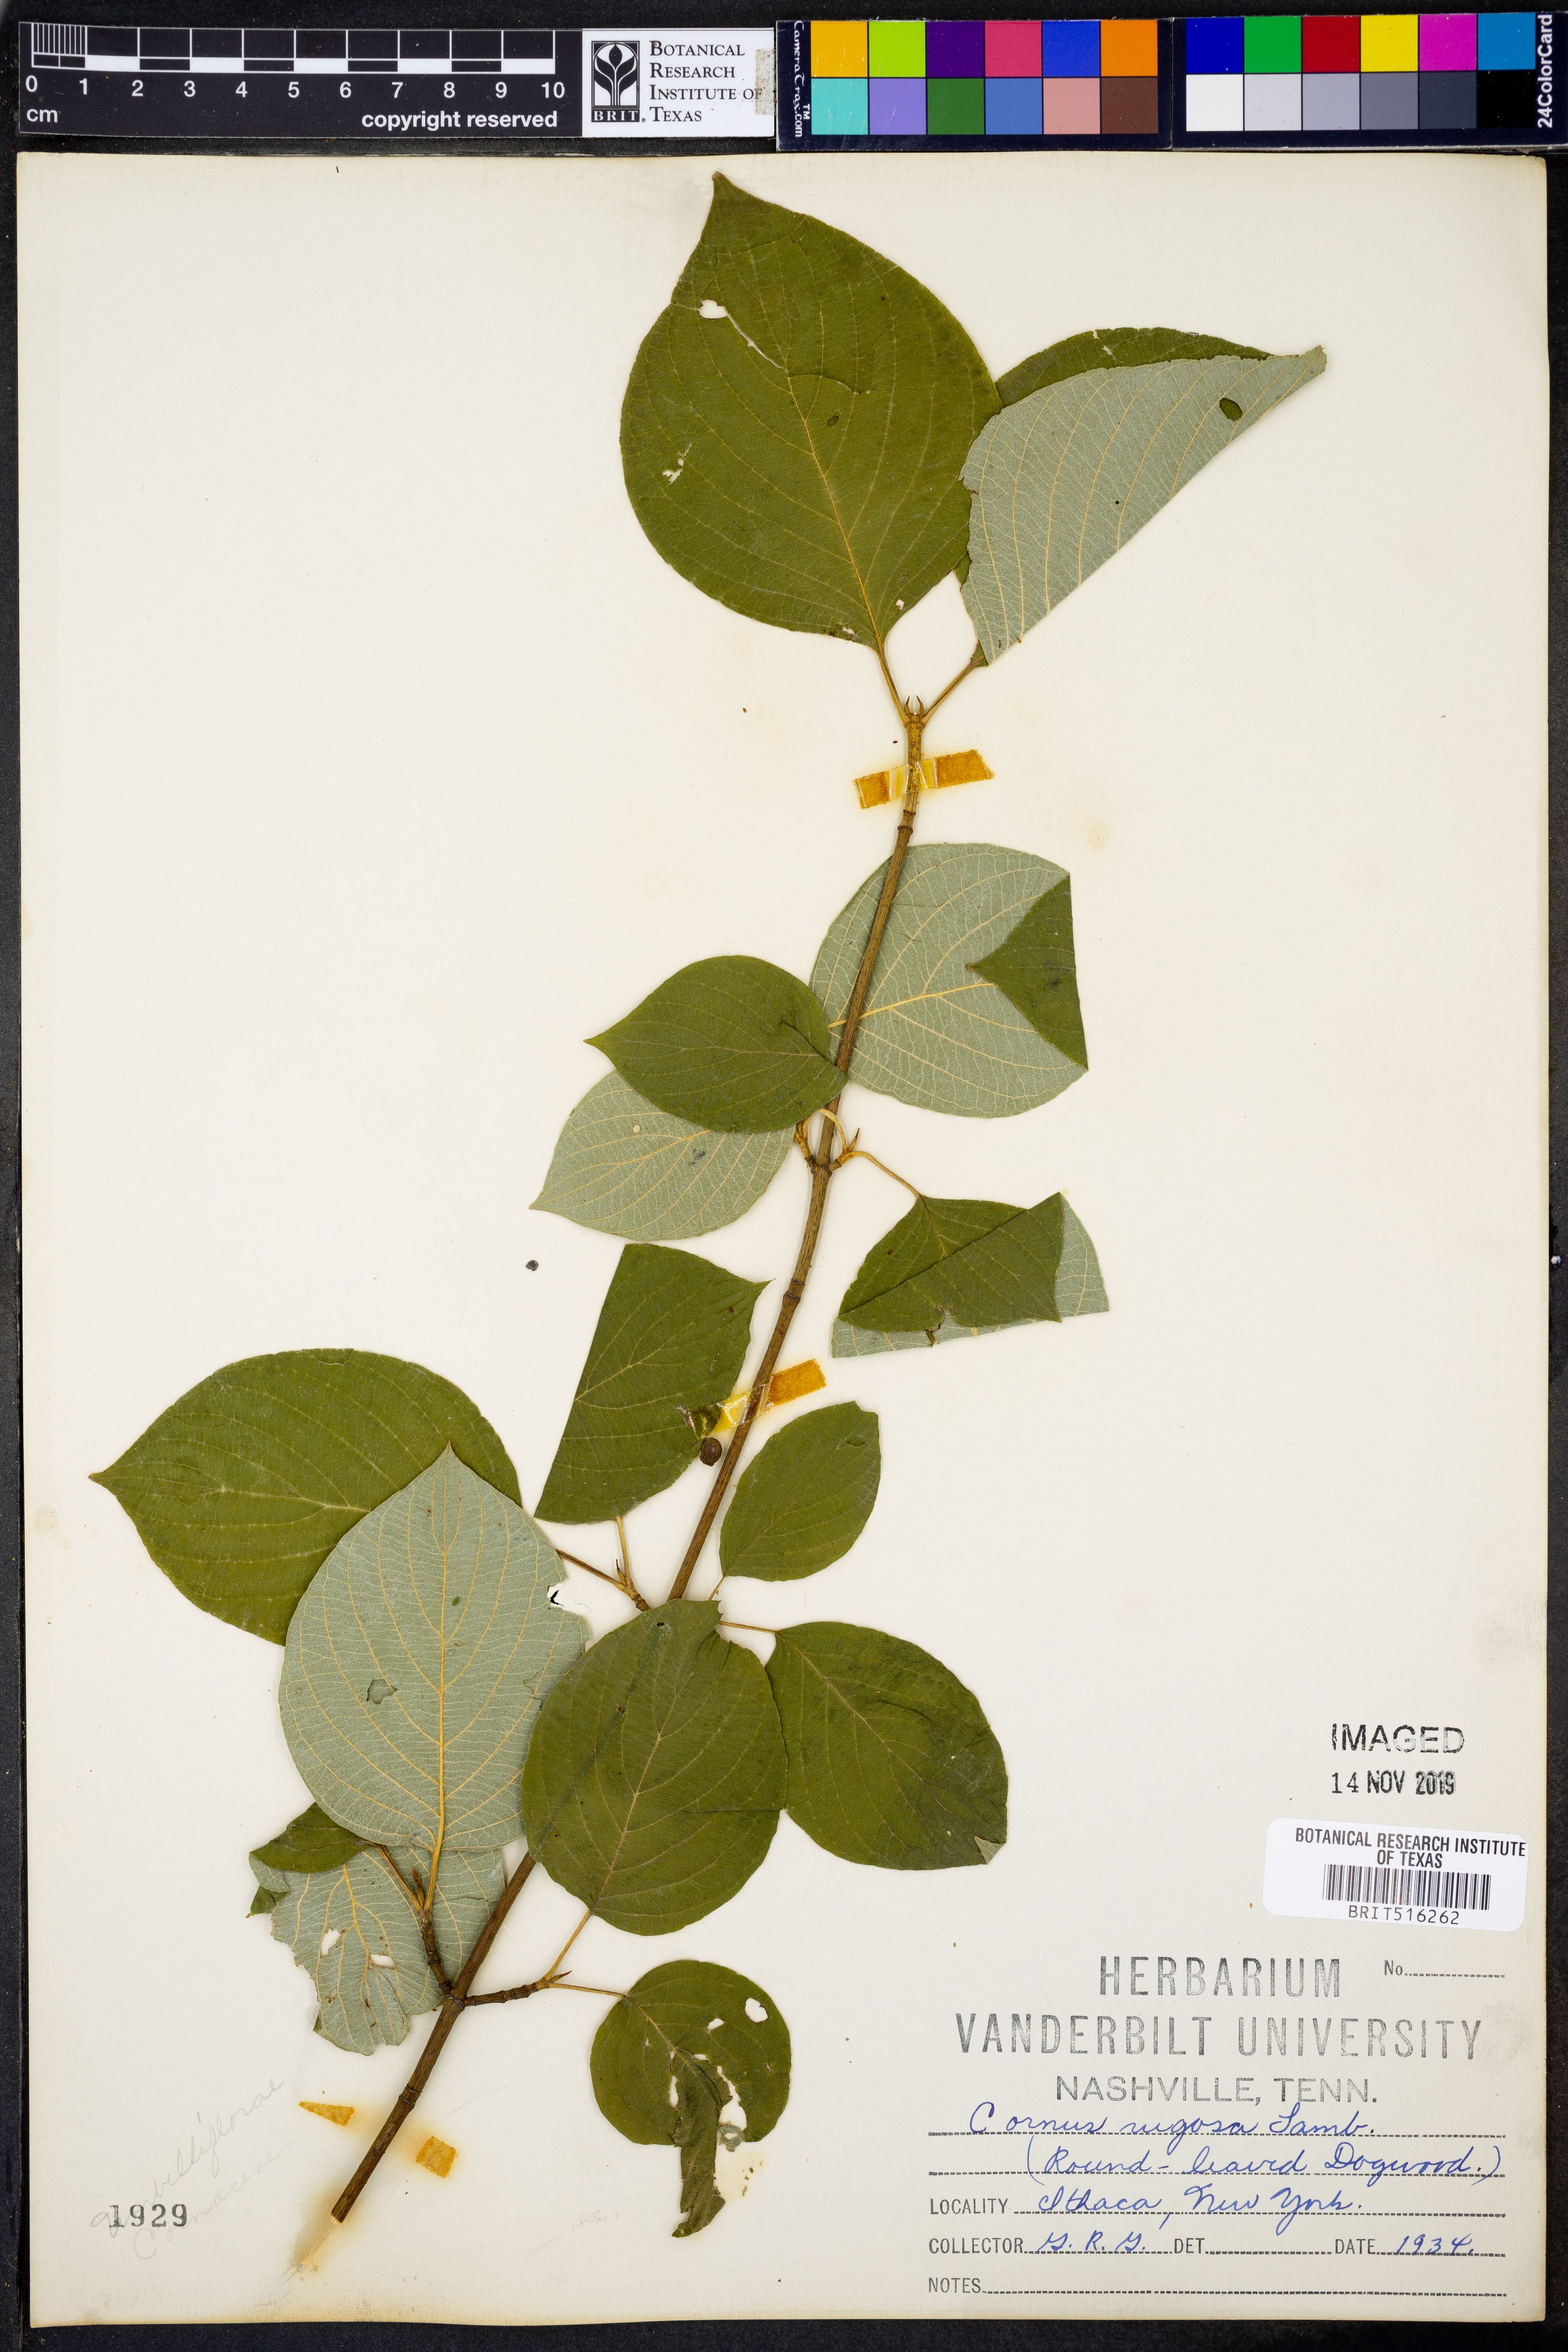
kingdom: Plantae
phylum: Tracheophyta
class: Magnoliopsida
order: Cornales
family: Cornaceae
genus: Cornus
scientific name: Cornus rugosa
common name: Round-leaf dogwood
